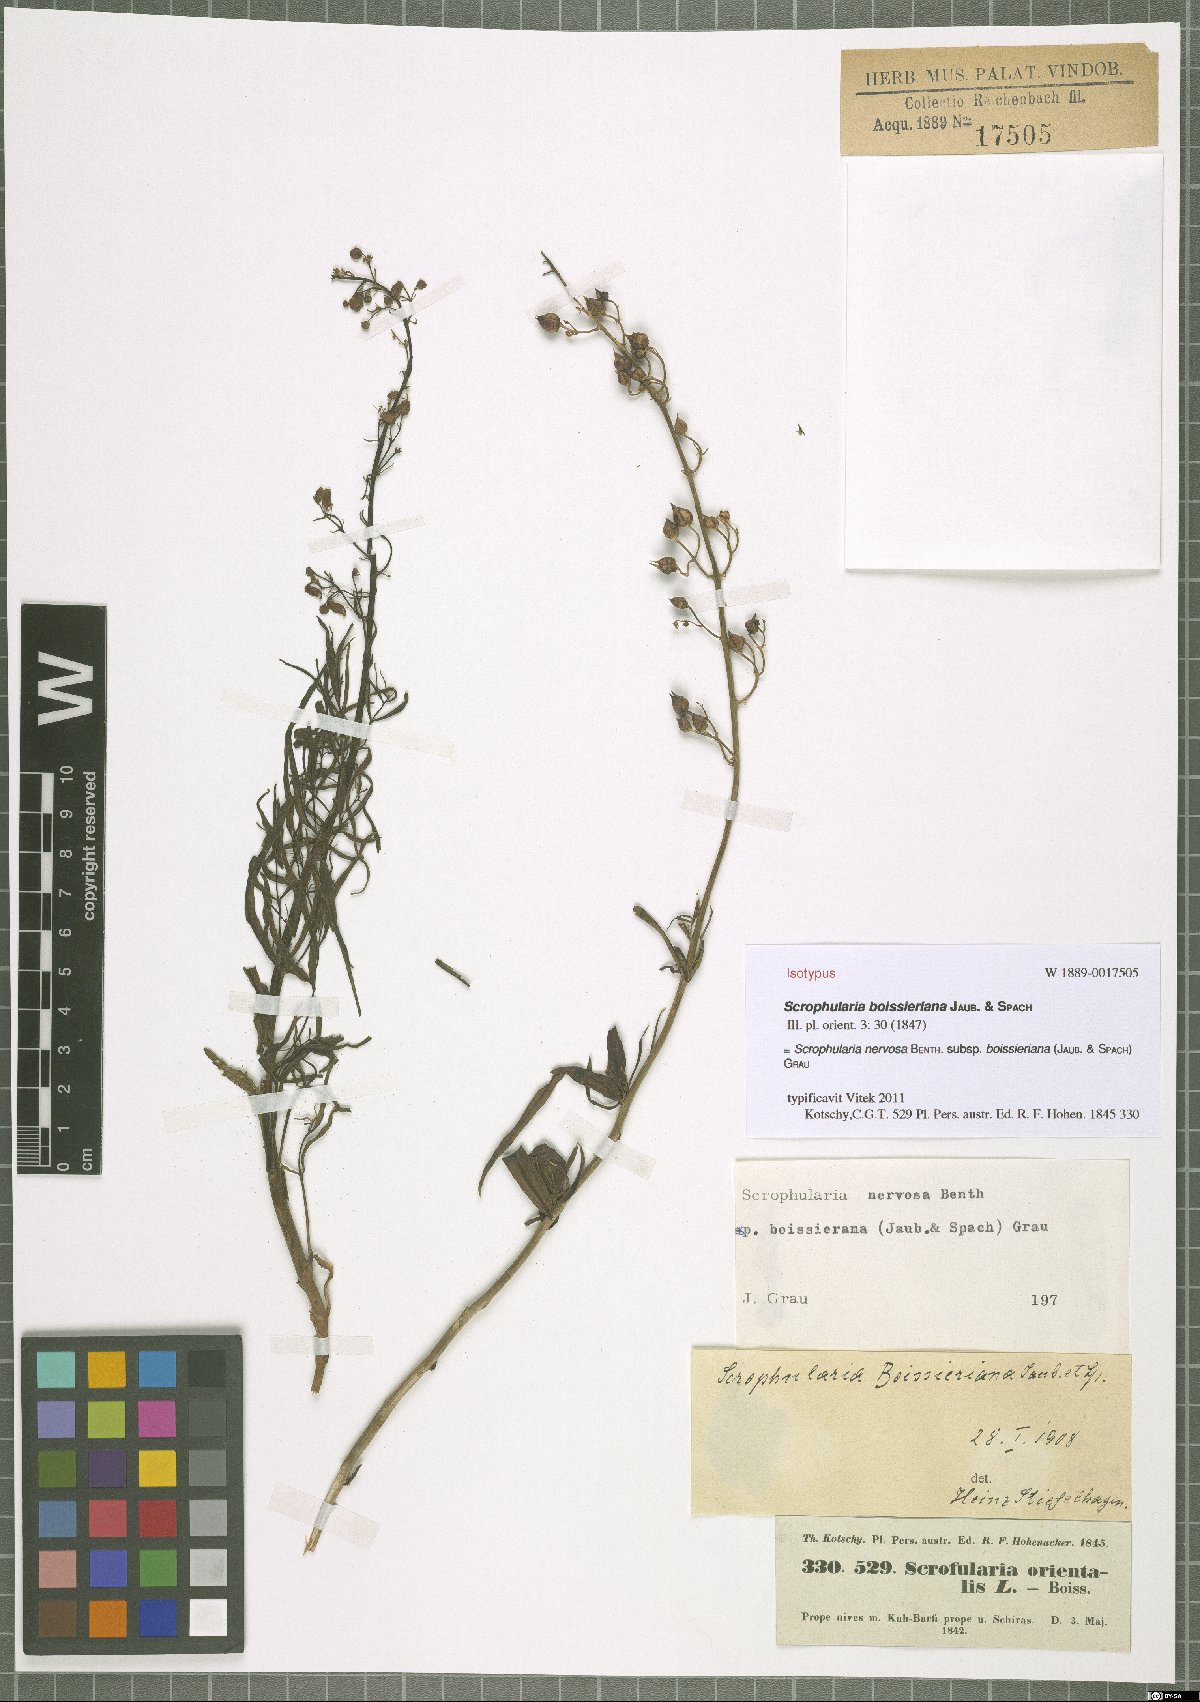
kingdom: Plantae
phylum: Tracheophyta
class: Magnoliopsida
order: Lamiales
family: Scrophulariaceae
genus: Scrophularia
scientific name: Scrophularia nervosa
